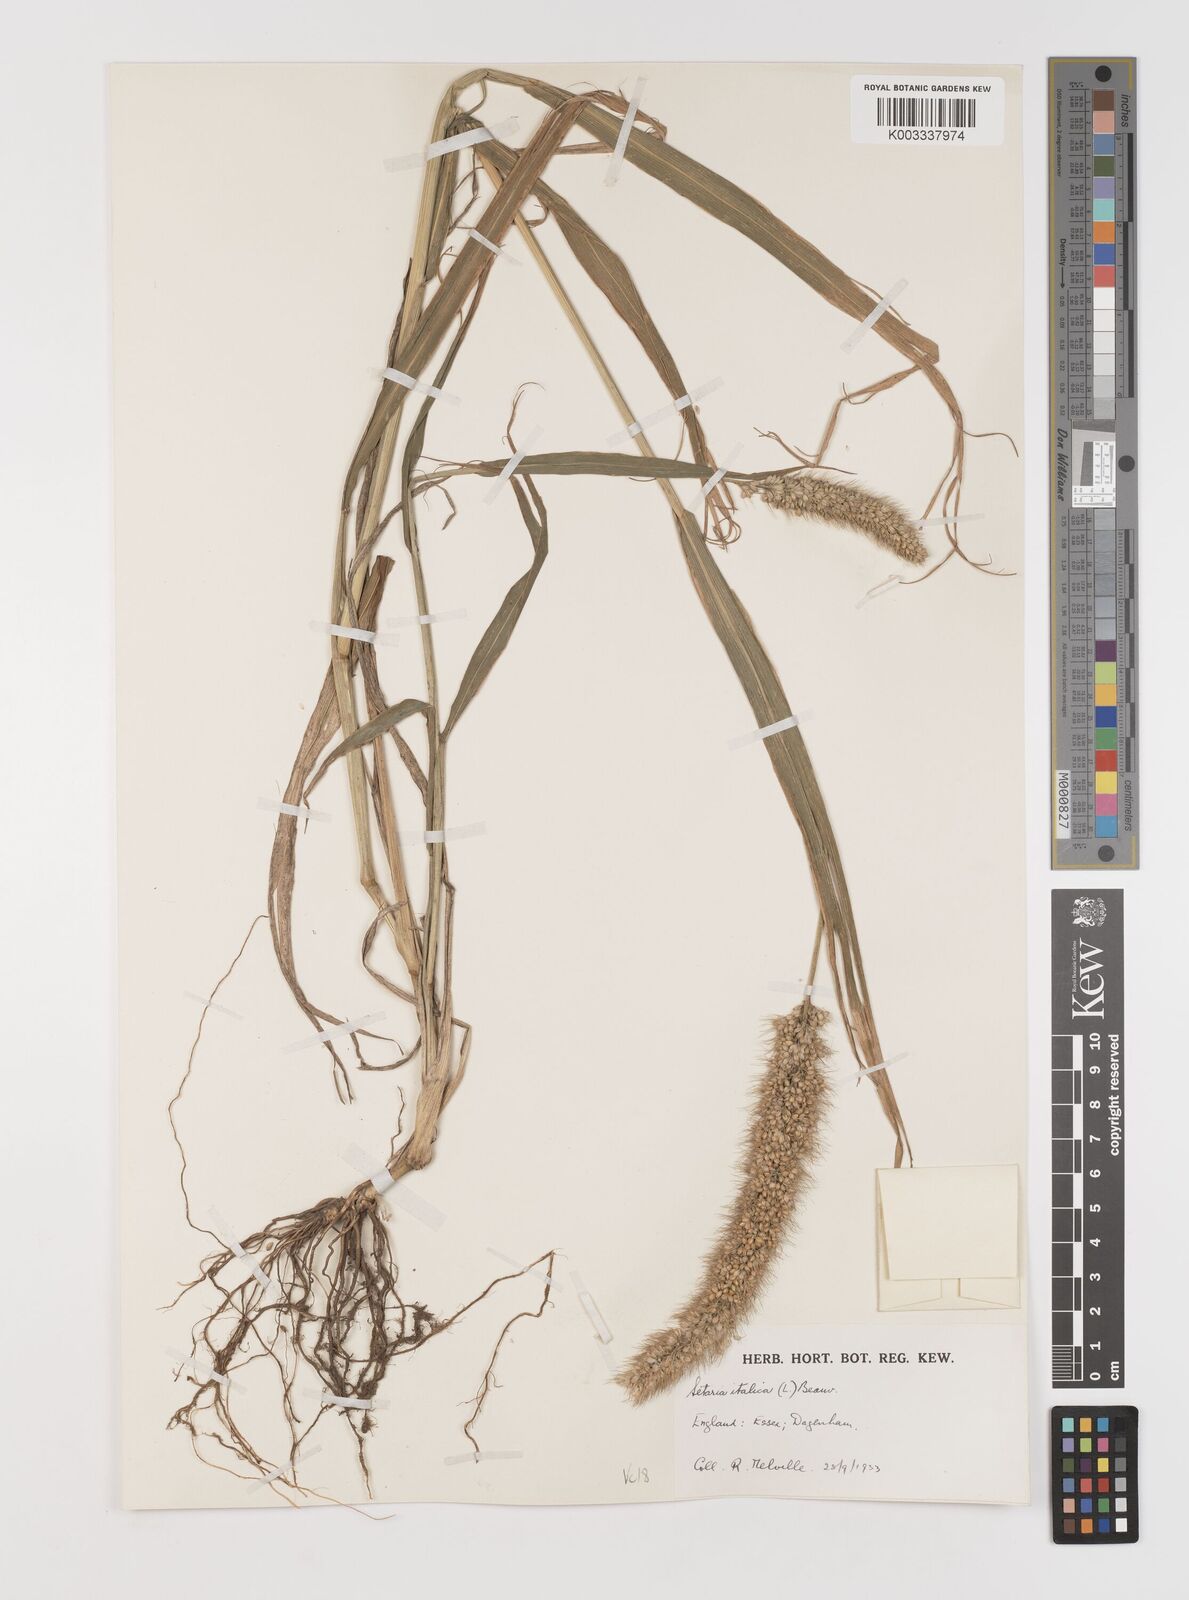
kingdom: Plantae
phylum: Tracheophyta
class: Liliopsida
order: Poales
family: Poaceae
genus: Setaria
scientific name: Setaria italica
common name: Foxtail bristle-grass
